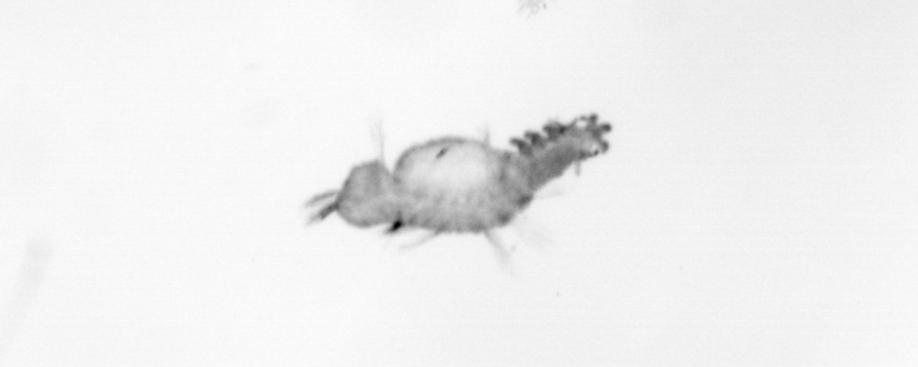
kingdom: Animalia
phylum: Annelida
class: Polychaeta
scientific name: Polychaeta
